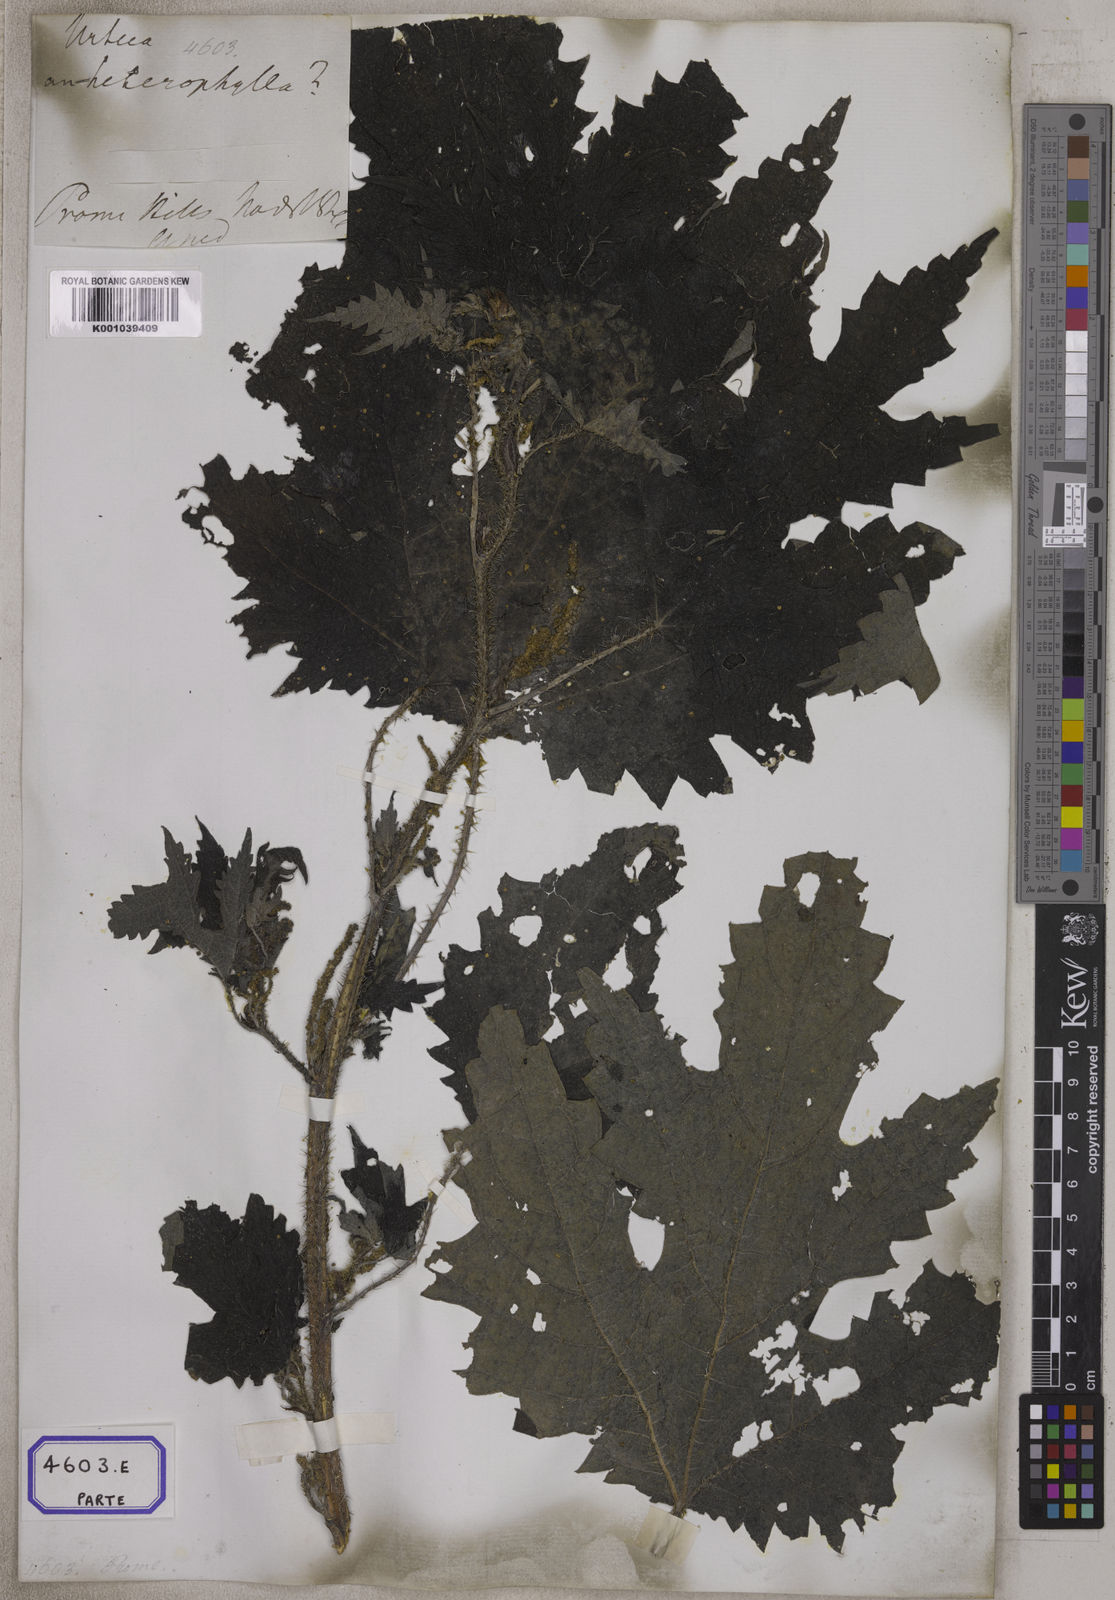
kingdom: Plantae
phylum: Tracheophyta
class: Magnoliopsida
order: Rosales
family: Urticaceae
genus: Girardinia
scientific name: Girardinia diversifolia
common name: Himalayan-nettle
